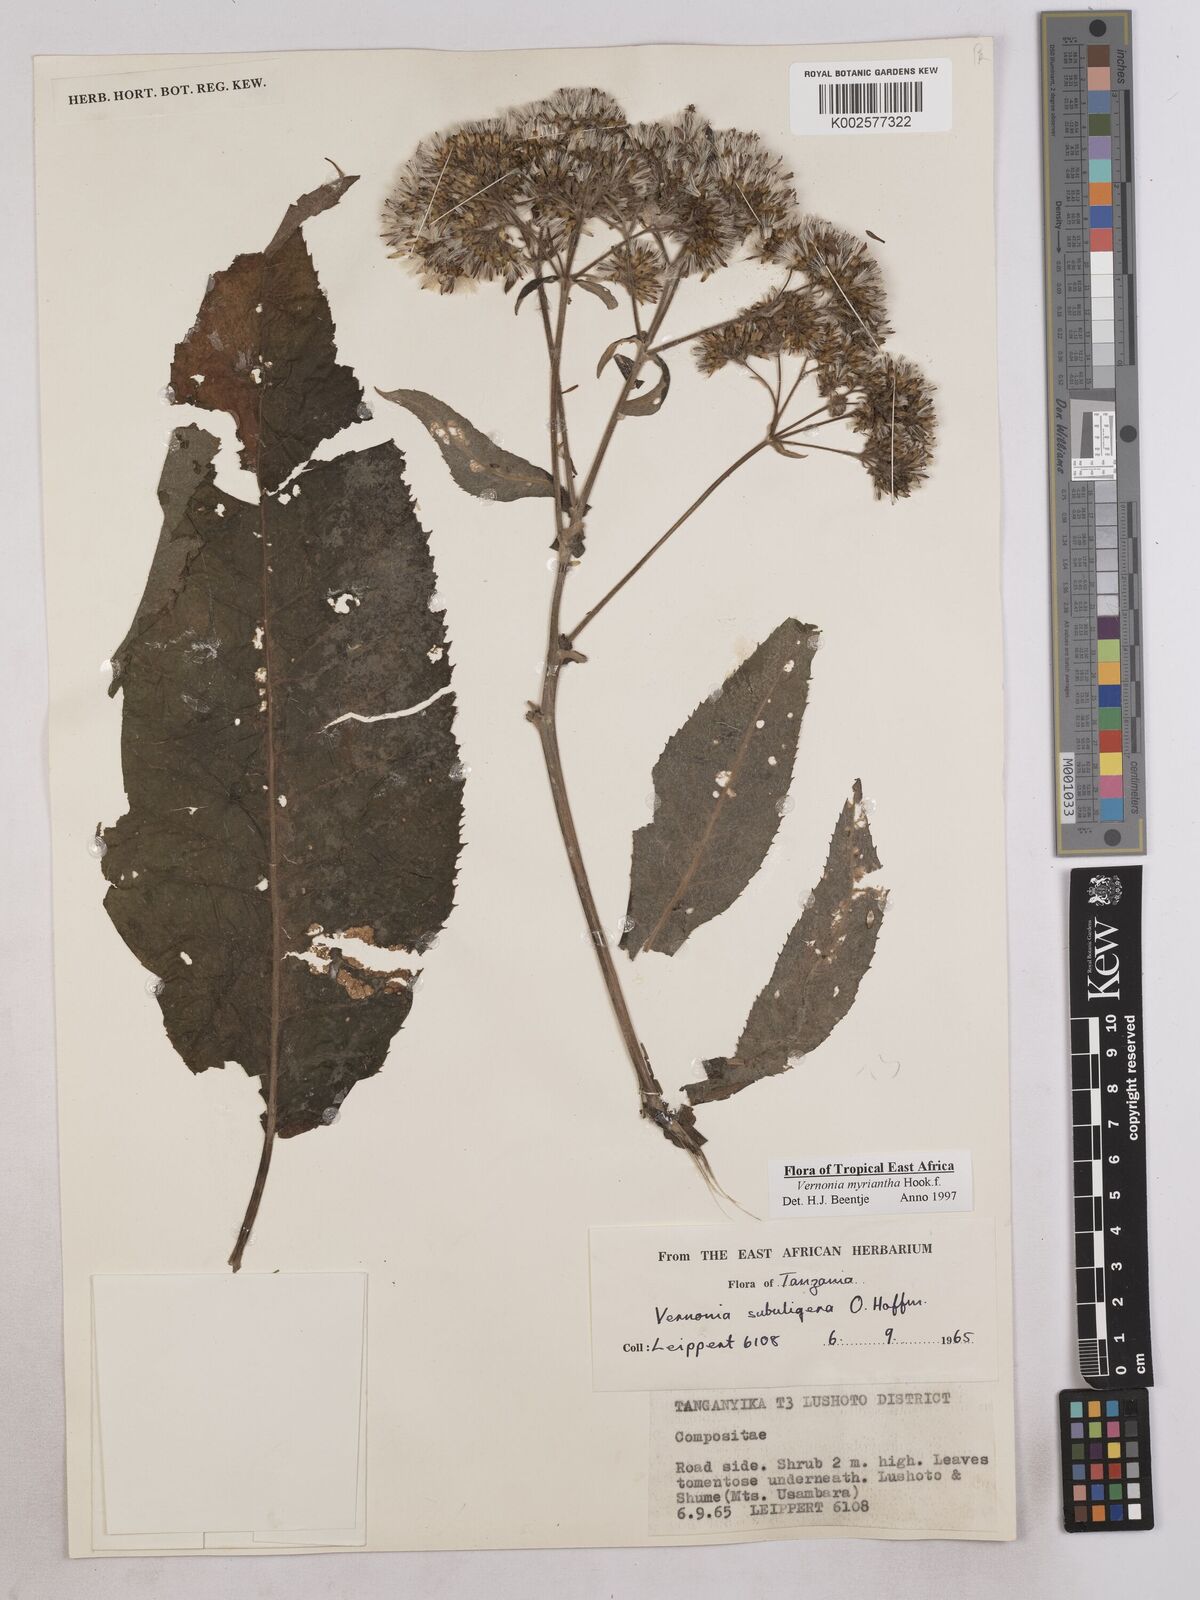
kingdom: Plantae
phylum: Tracheophyta
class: Magnoliopsida
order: Asterales
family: Asteraceae
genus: Gymnanthemum
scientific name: Gymnanthemum myrianthum
